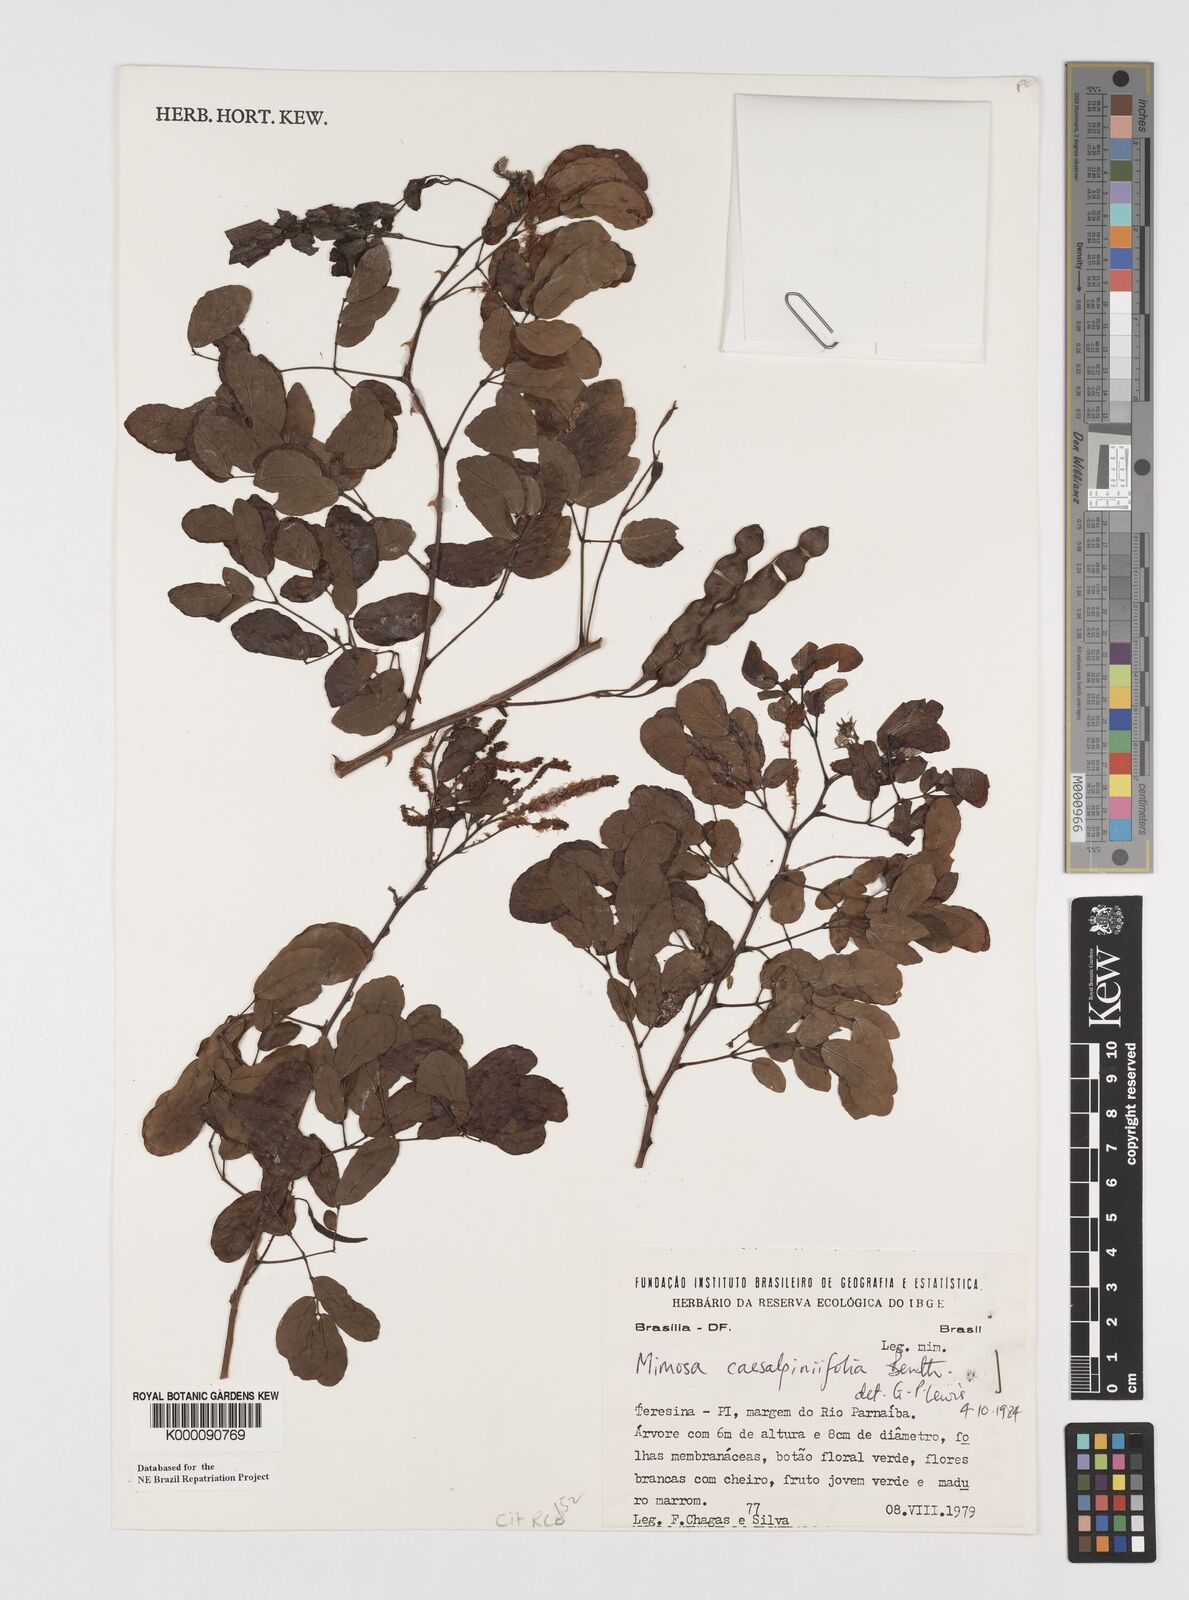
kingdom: Plantae
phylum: Tracheophyta
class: Magnoliopsida
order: Fabales
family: Fabaceae
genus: Mimosa
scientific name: Mimosa caesalpiniifolia
